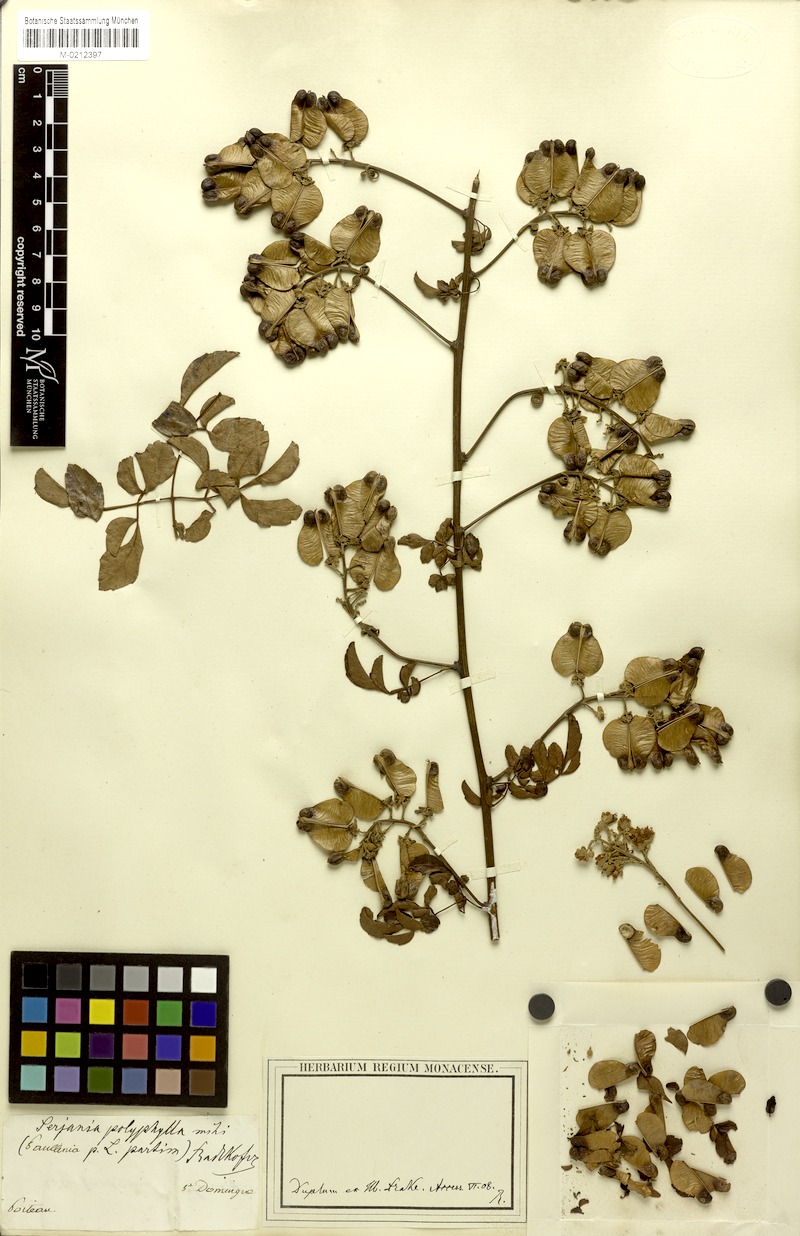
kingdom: Plantae
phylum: Tracheophyta
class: Magnoliopsida
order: Sapindales
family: Sapindaceae
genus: Serjania
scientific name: Serjania polyphylla
